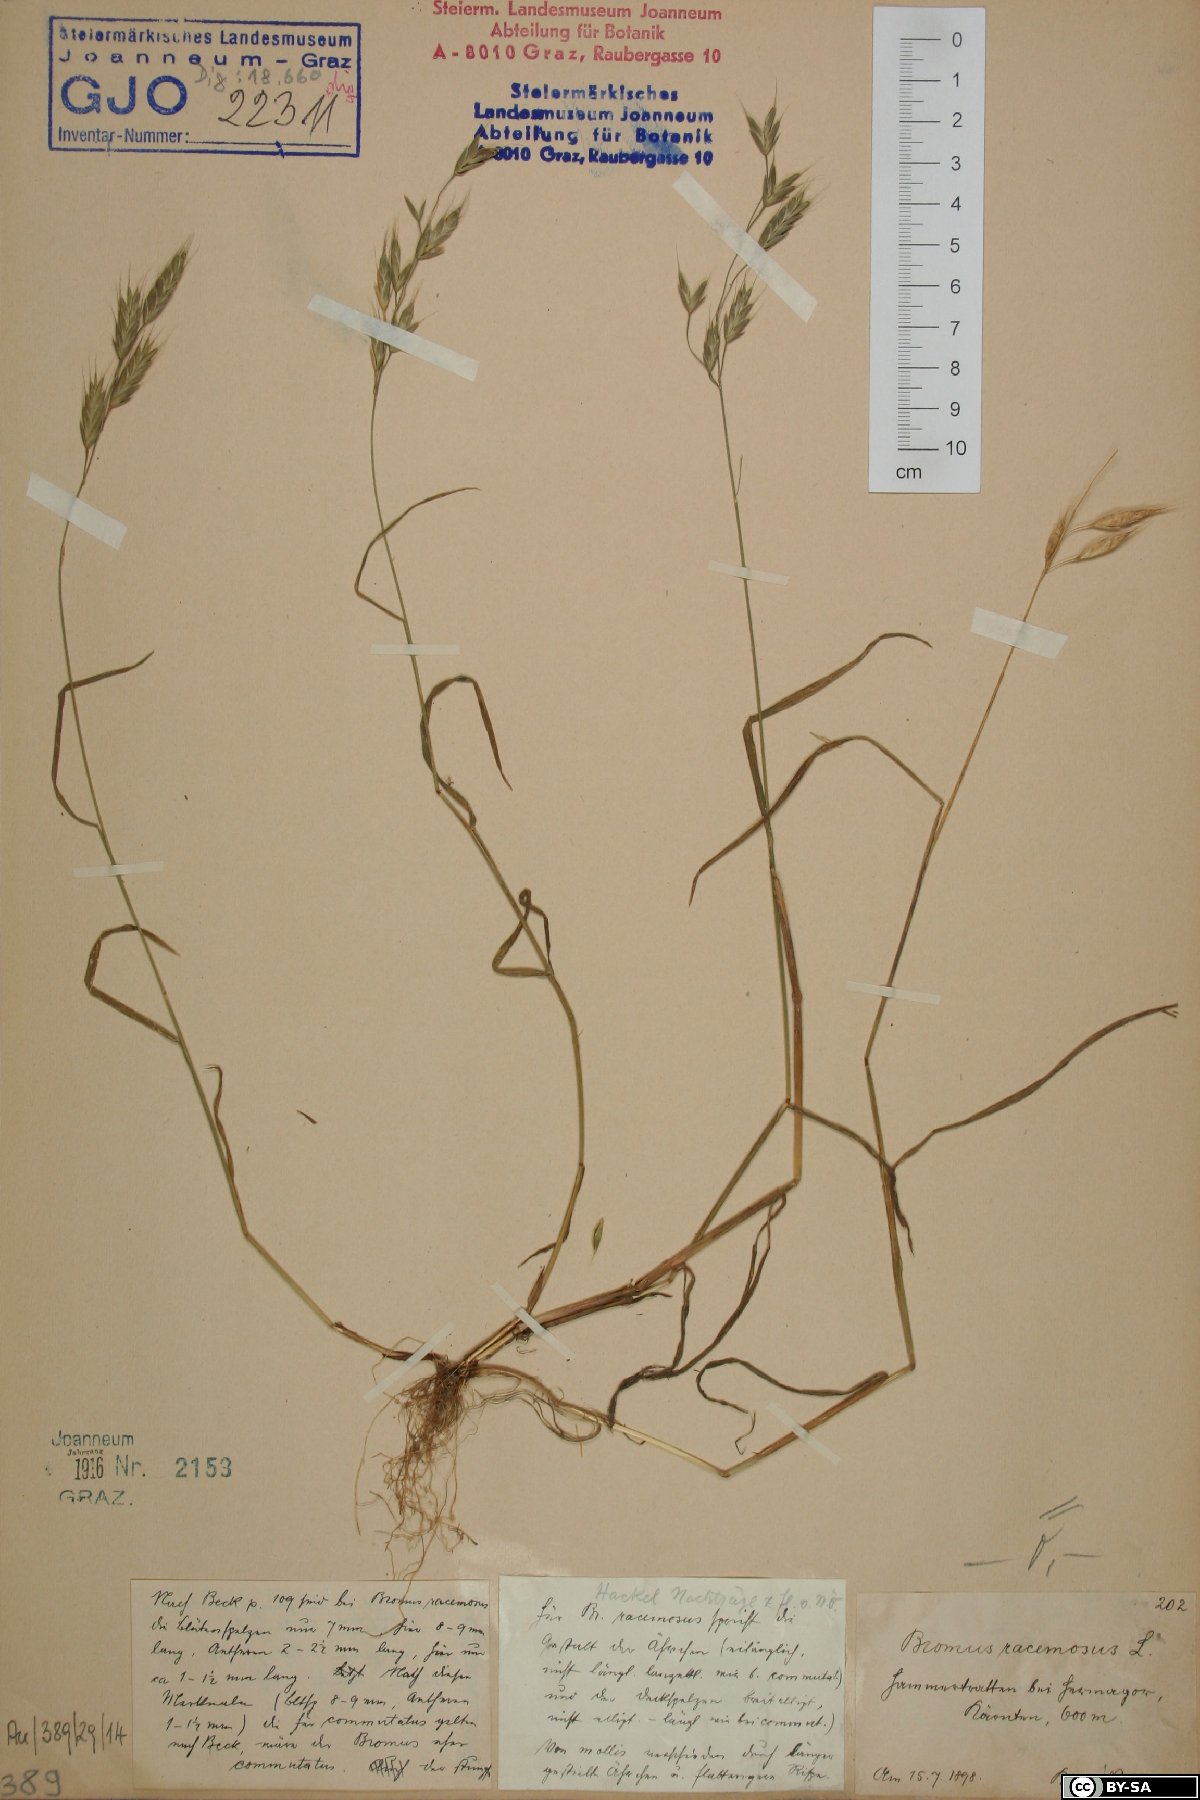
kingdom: Plantae
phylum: Tracheophyta
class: Liliopsida
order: Poales
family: Poaceae
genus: Bromus
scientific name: Bromus racemosus
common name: Bald brome
